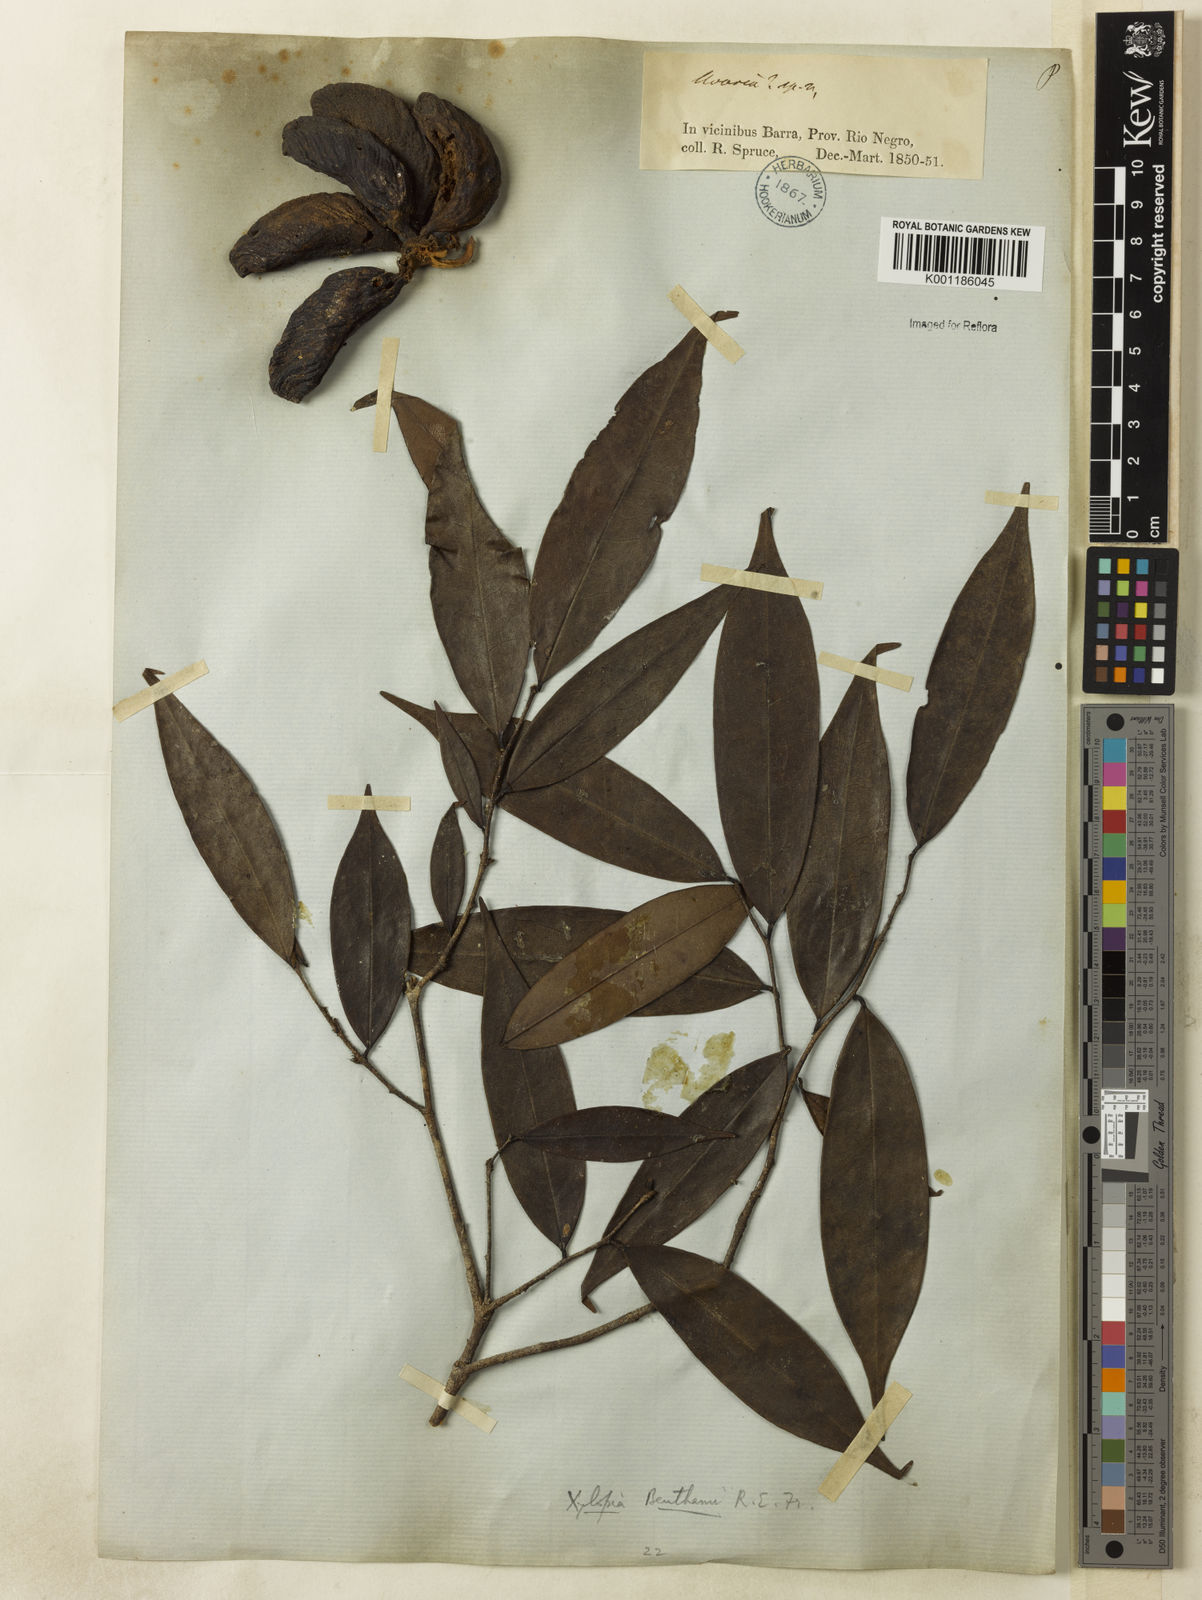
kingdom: Plantae
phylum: Tracheophyta
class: Magnoliopsida
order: Magnoliales
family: Annonaceae
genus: Xylopia
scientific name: Xylopia benthamii
